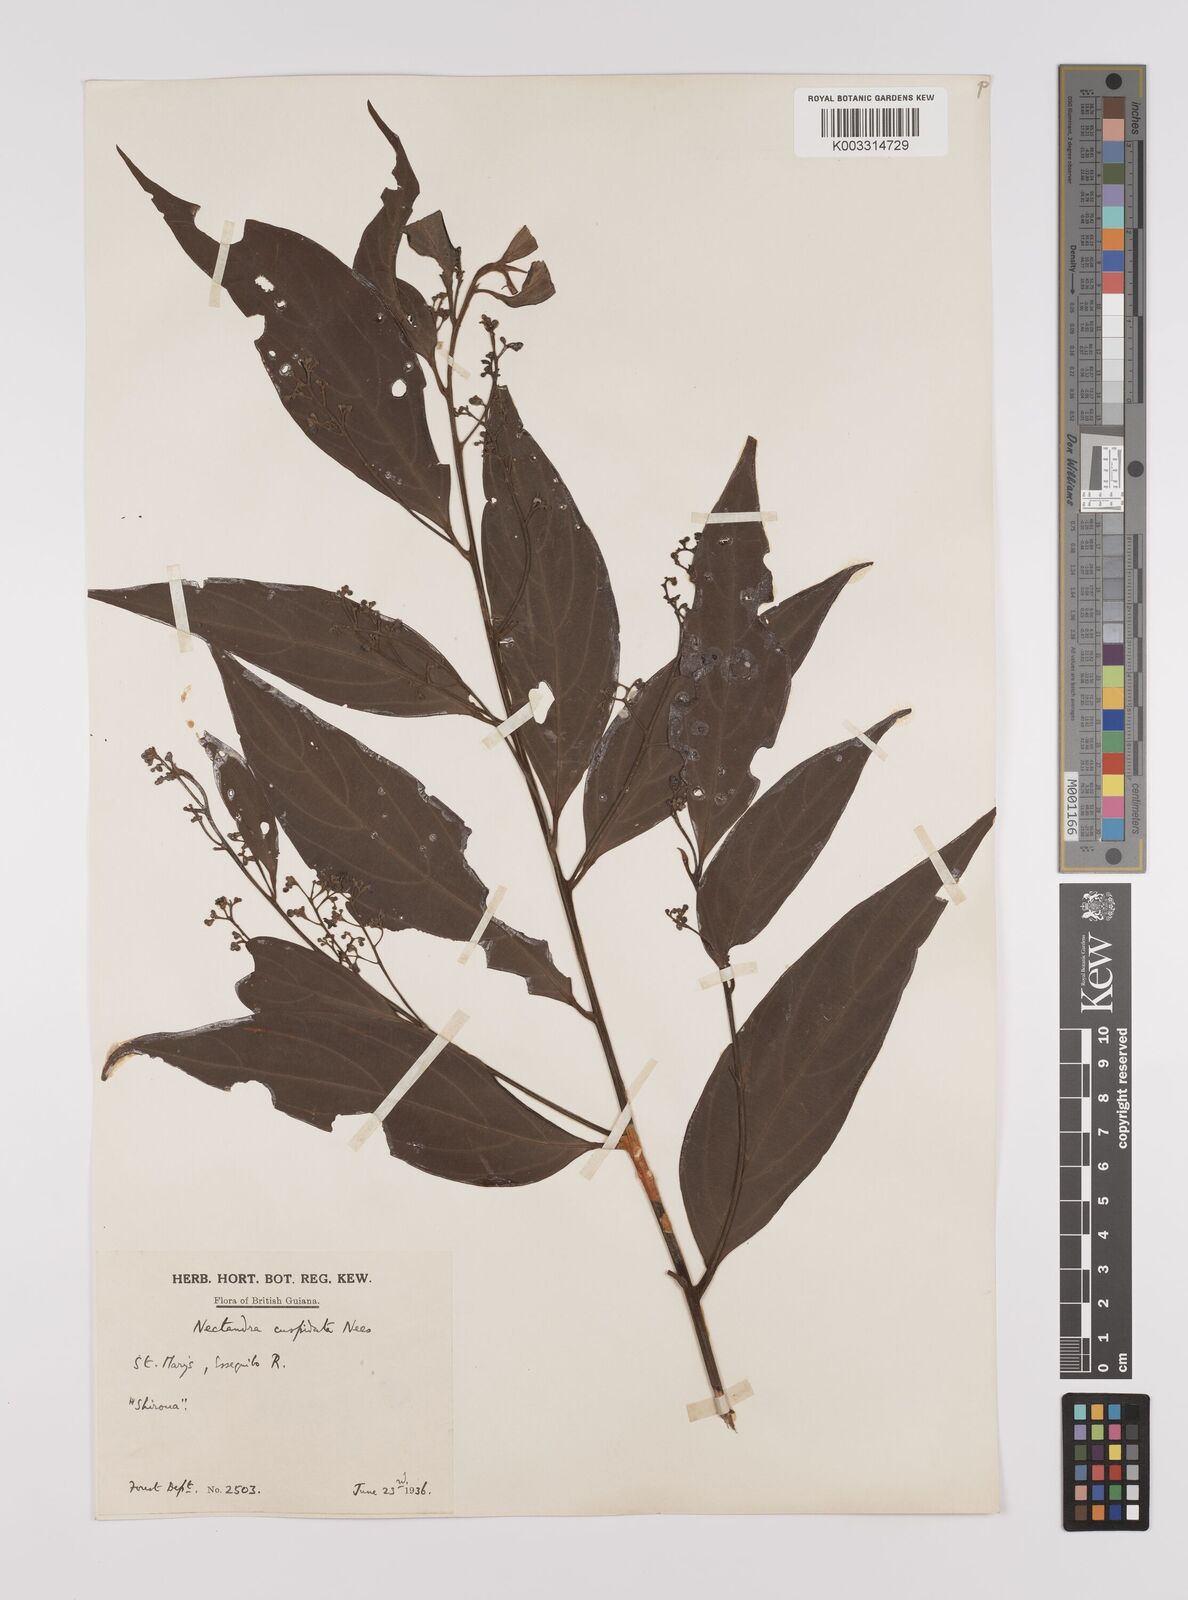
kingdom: Plantae
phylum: Tracheophyta
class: Magnoliopsida
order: Laurales
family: Lauraceae
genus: Nectandra
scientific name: Nectandra cuspidata
